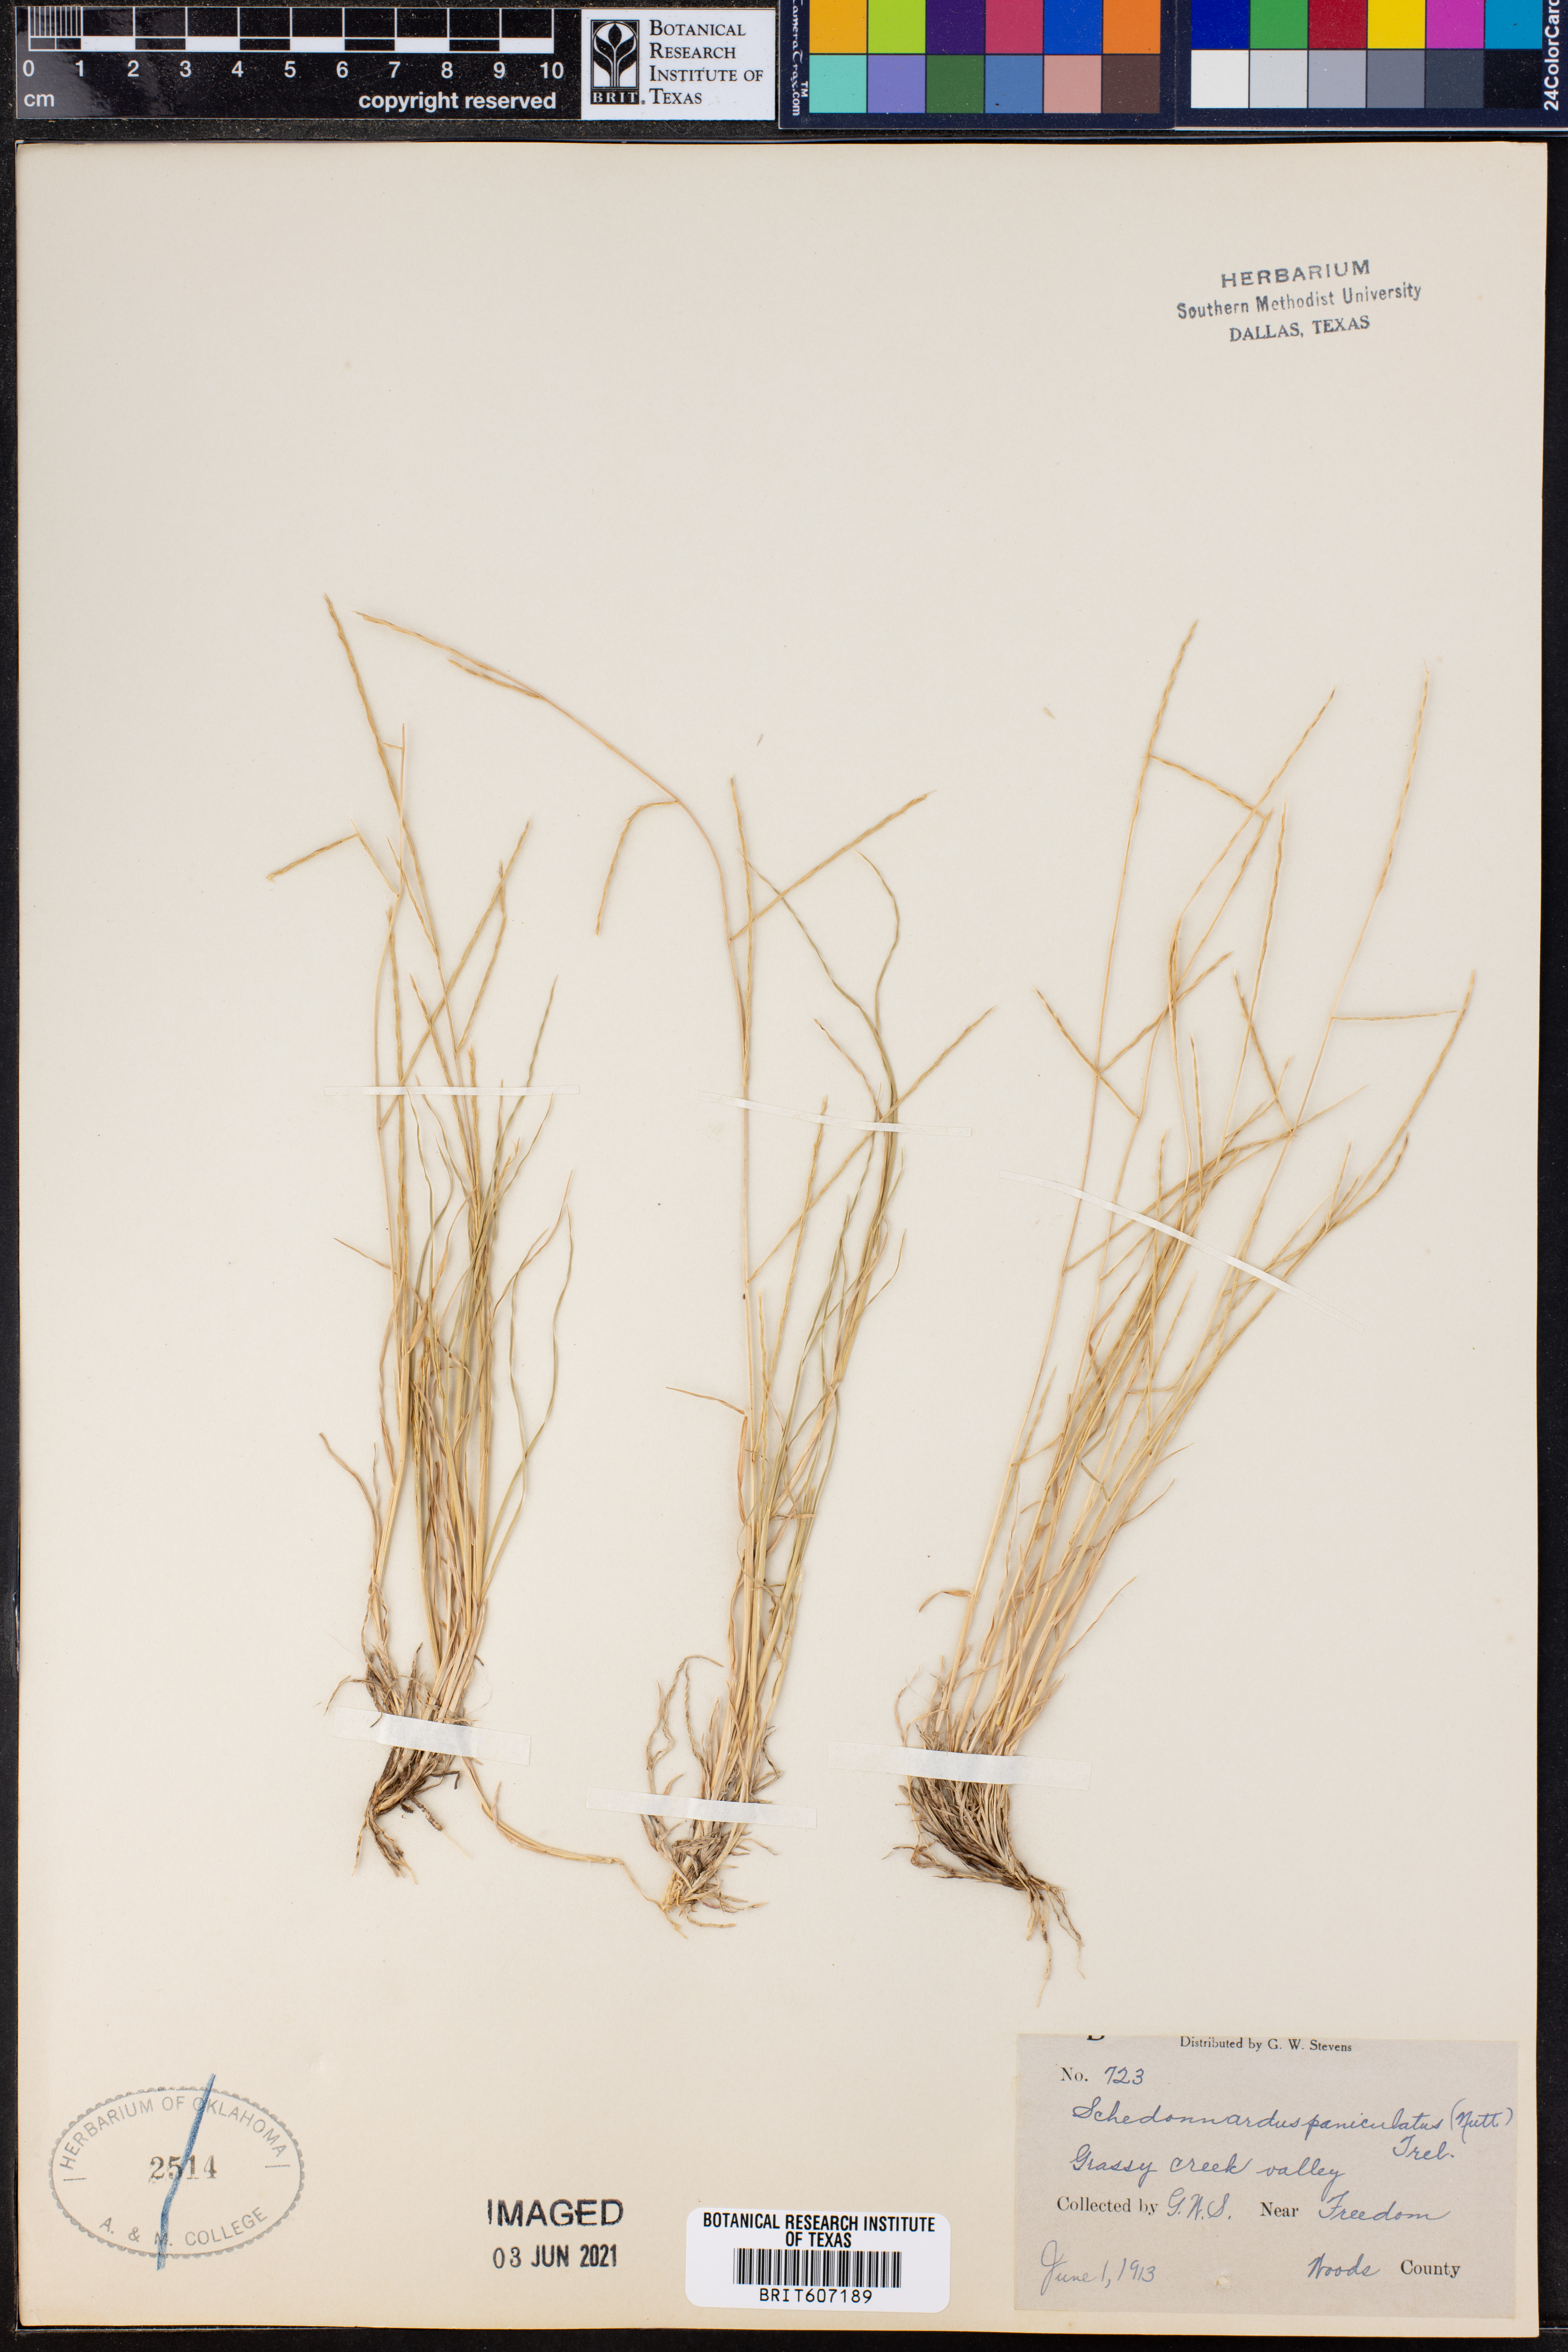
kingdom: Plantae
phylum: Tracheophyta
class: Liliopsida
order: Poales
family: Poaceae
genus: Muhlenbergia
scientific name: Muhlenbergia paniculata
